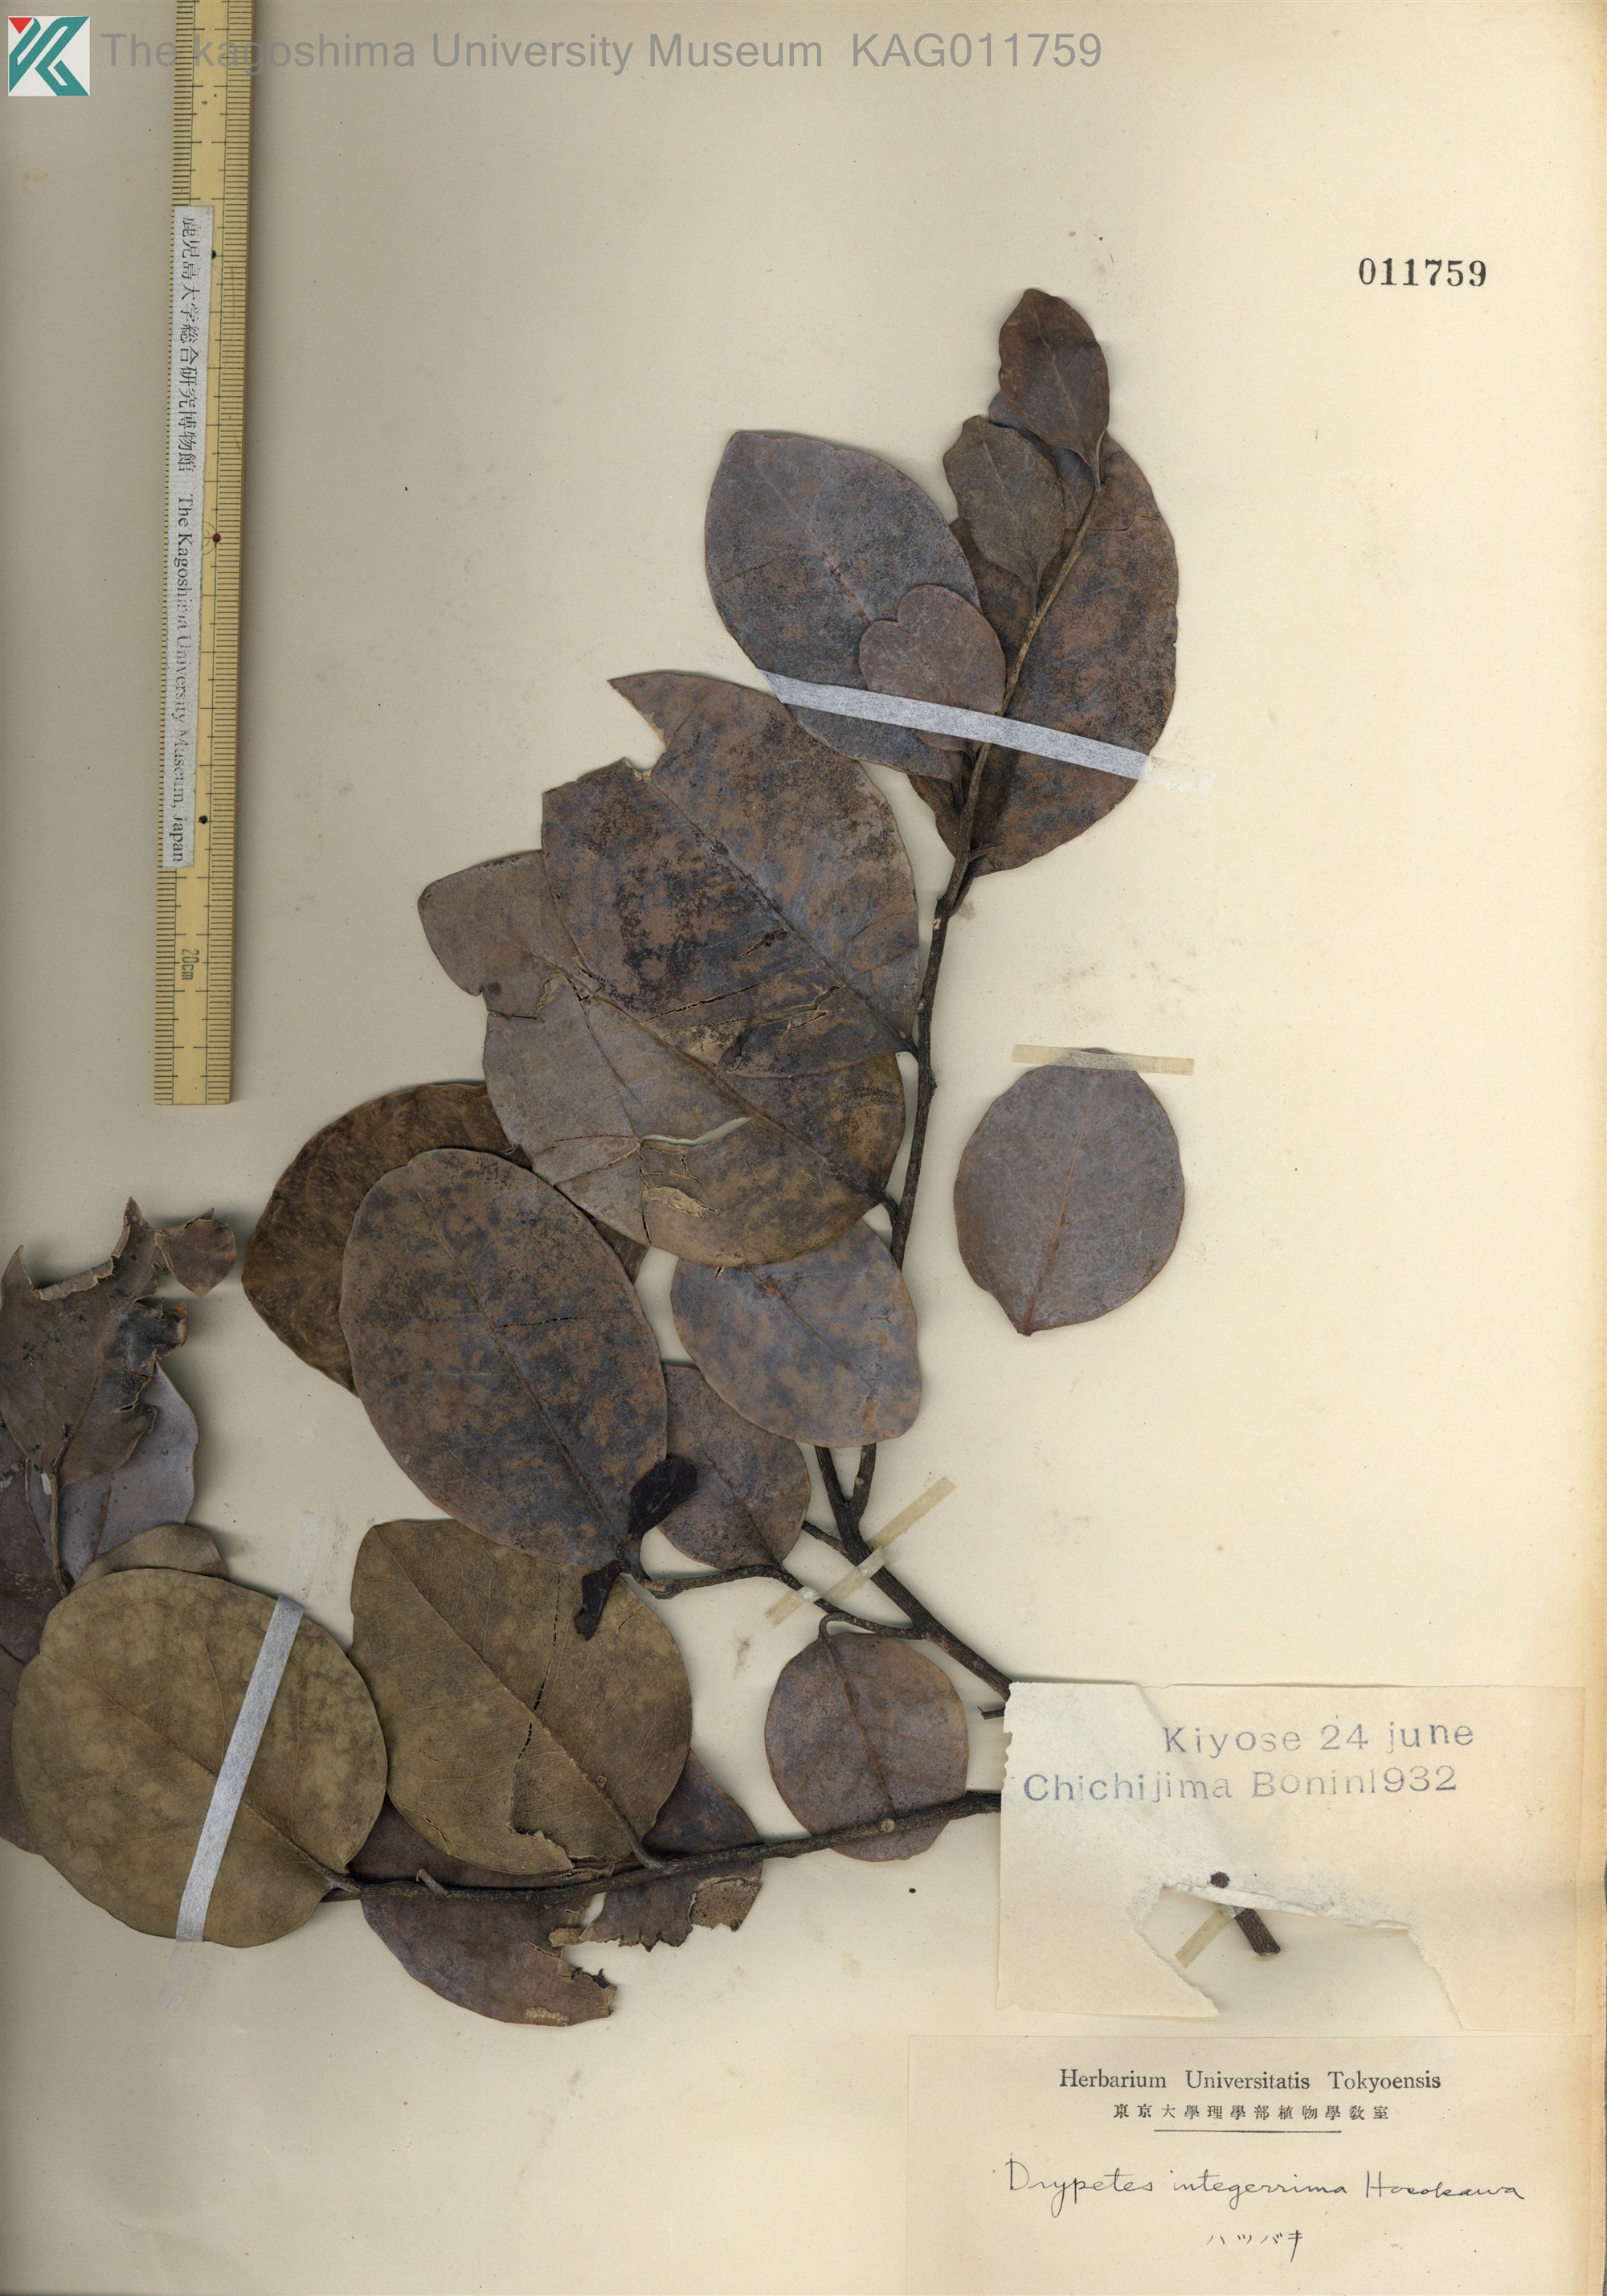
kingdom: Plantae
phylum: Tracheophyta
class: Magnoliopsida
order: Malpighiales
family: Putranjivaceae
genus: Drypetes
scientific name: Drypetes integerrima
